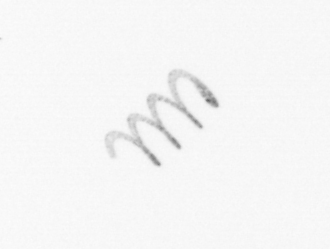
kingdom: Chromista
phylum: Ochrophyta
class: Bacillariophyceae
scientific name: Bacillariophyceae
